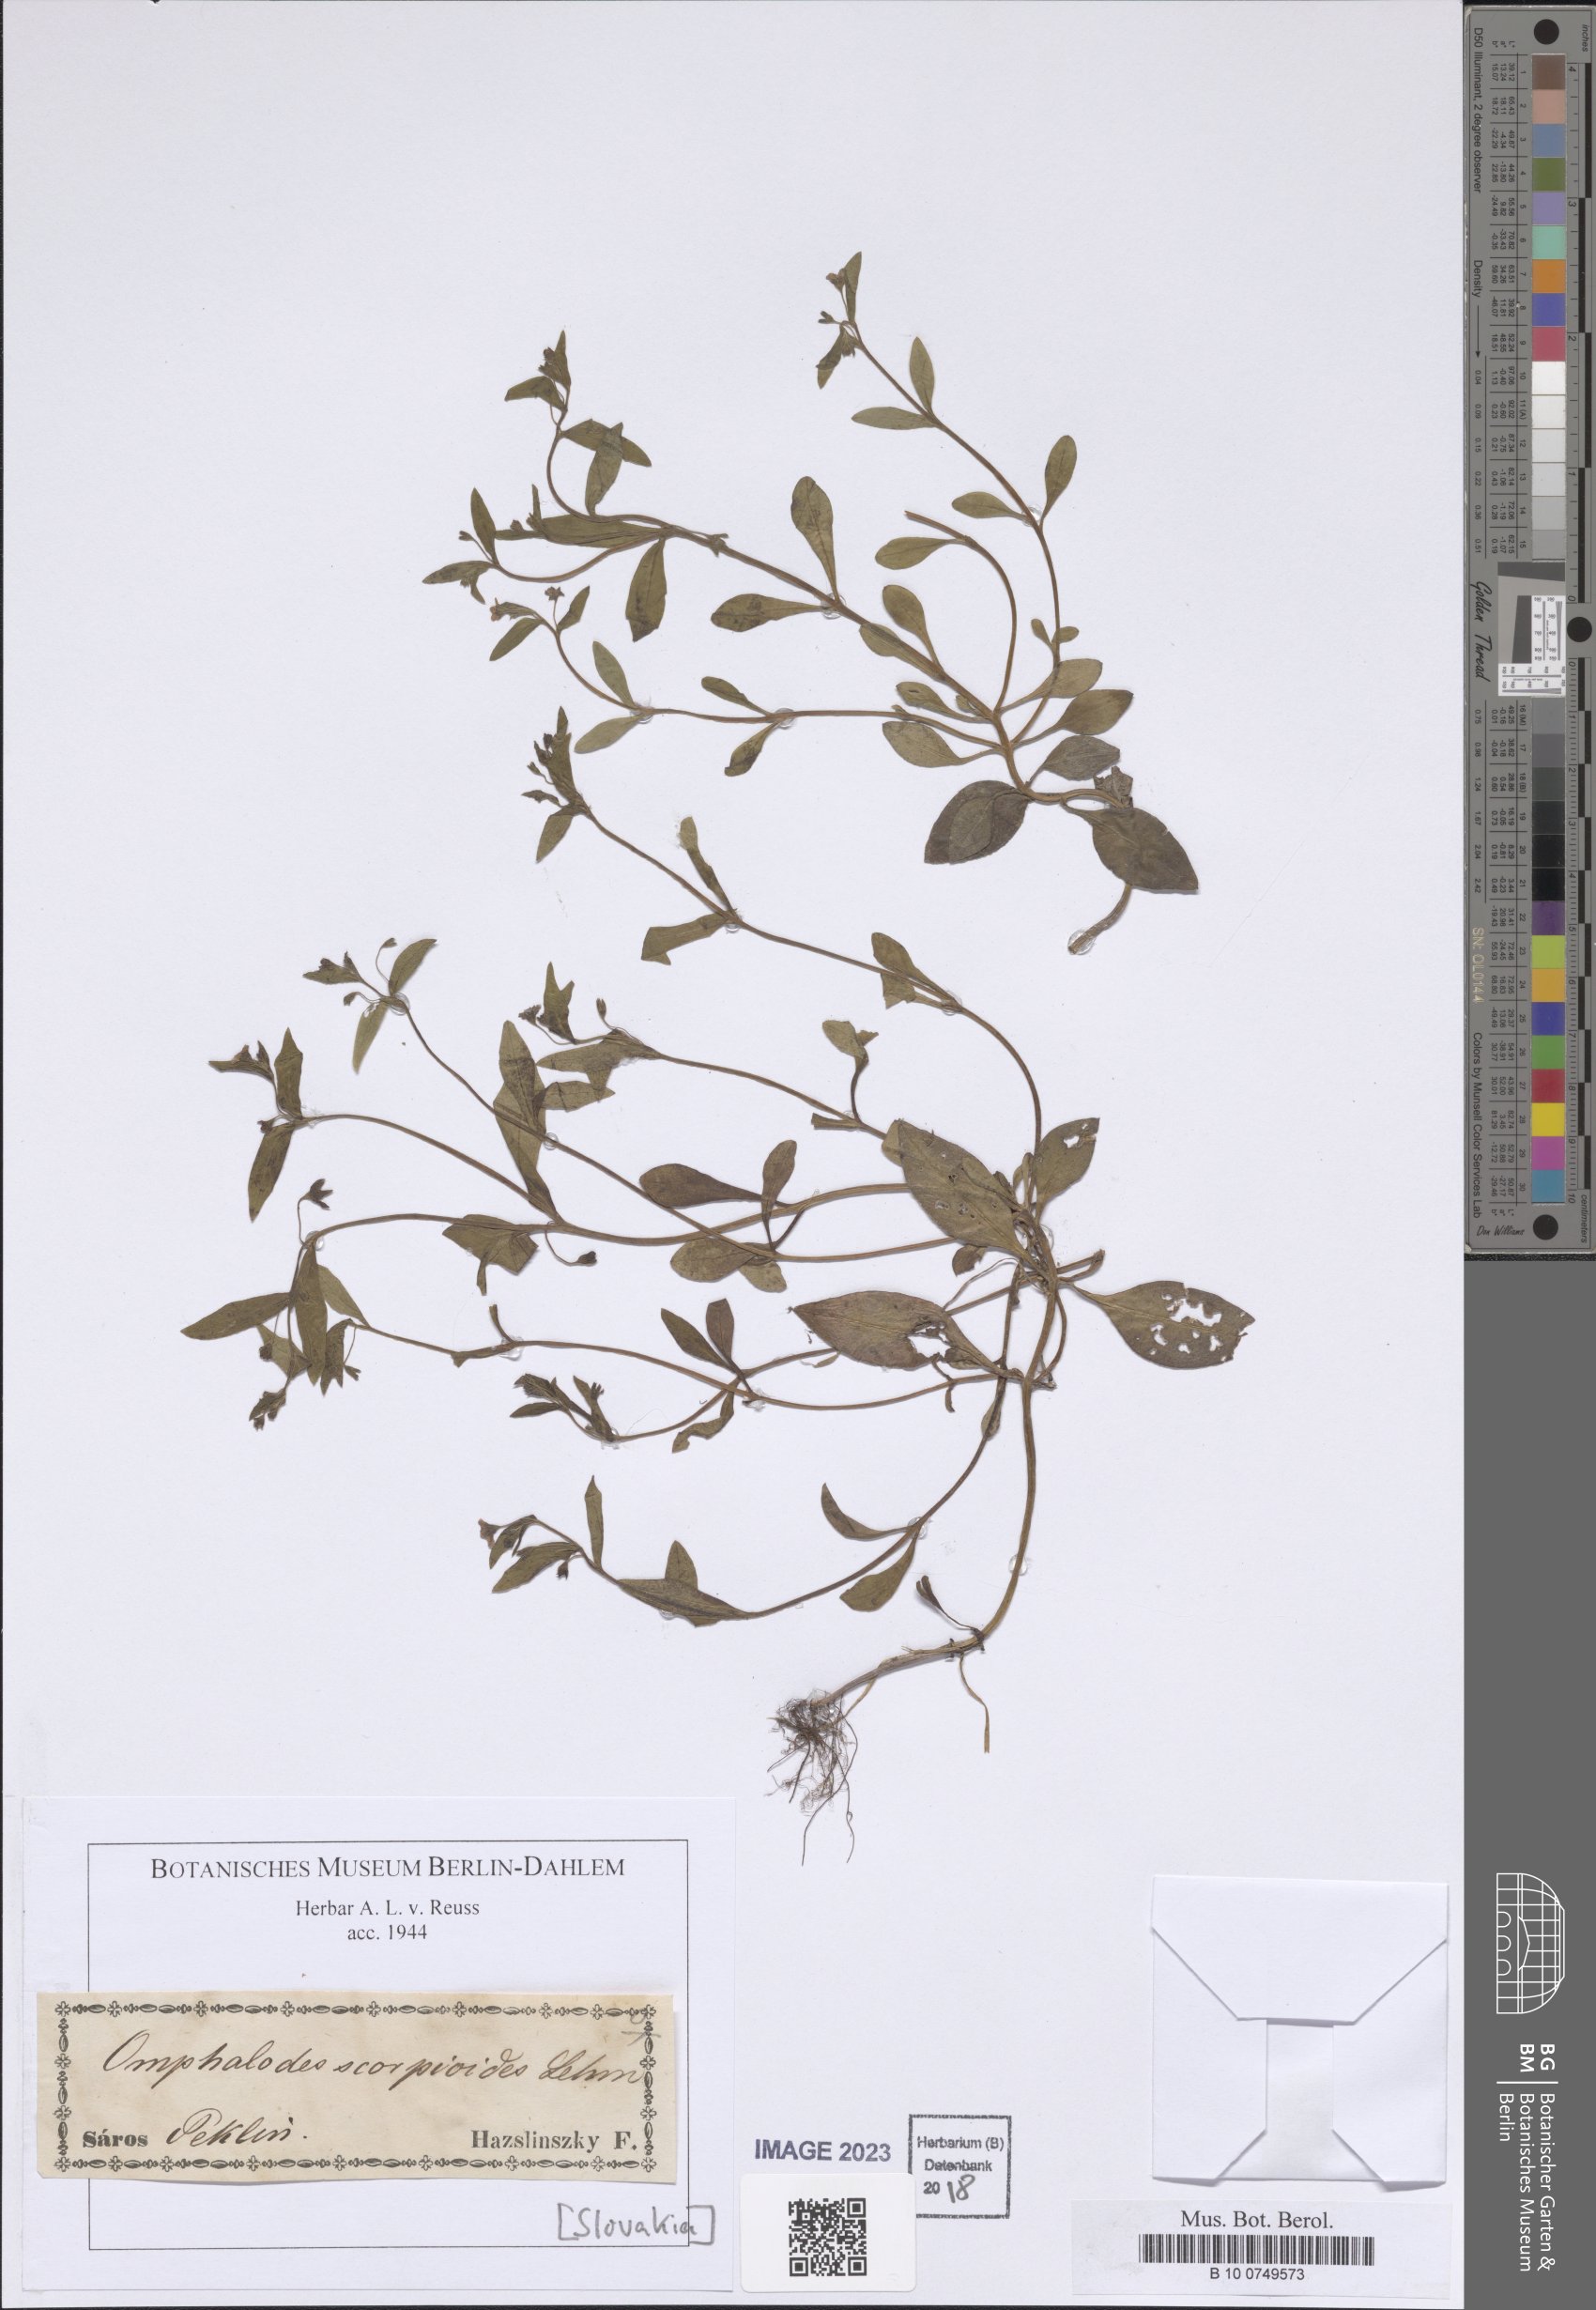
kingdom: Plantae
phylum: Tracheophyta
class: Magnoliopsida
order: Boraginales
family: Boraginaceae
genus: Memoremea
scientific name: Memoremea scorpioides
